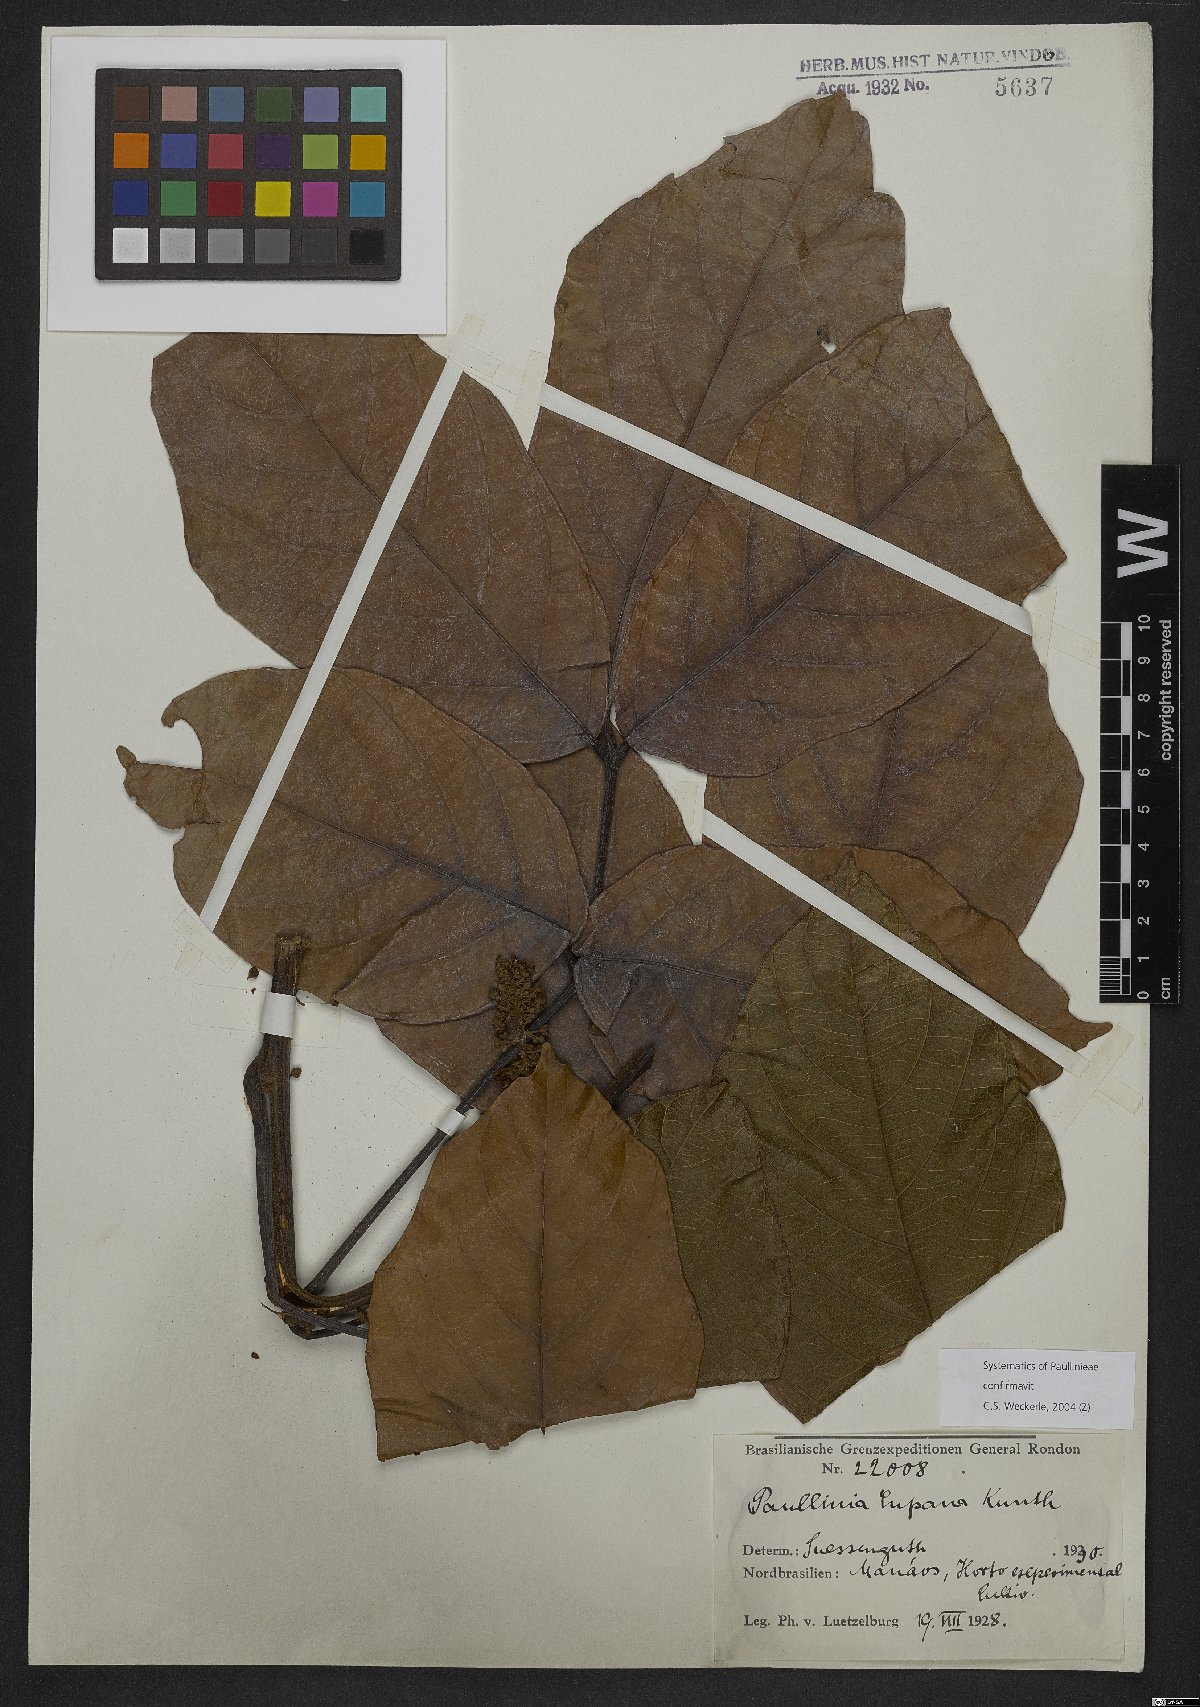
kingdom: Plantae
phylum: Tracheophyta
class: Magnoliopsida
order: Sapindales
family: Sapindaceae
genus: Paullinia
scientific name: Paullinia cupana
